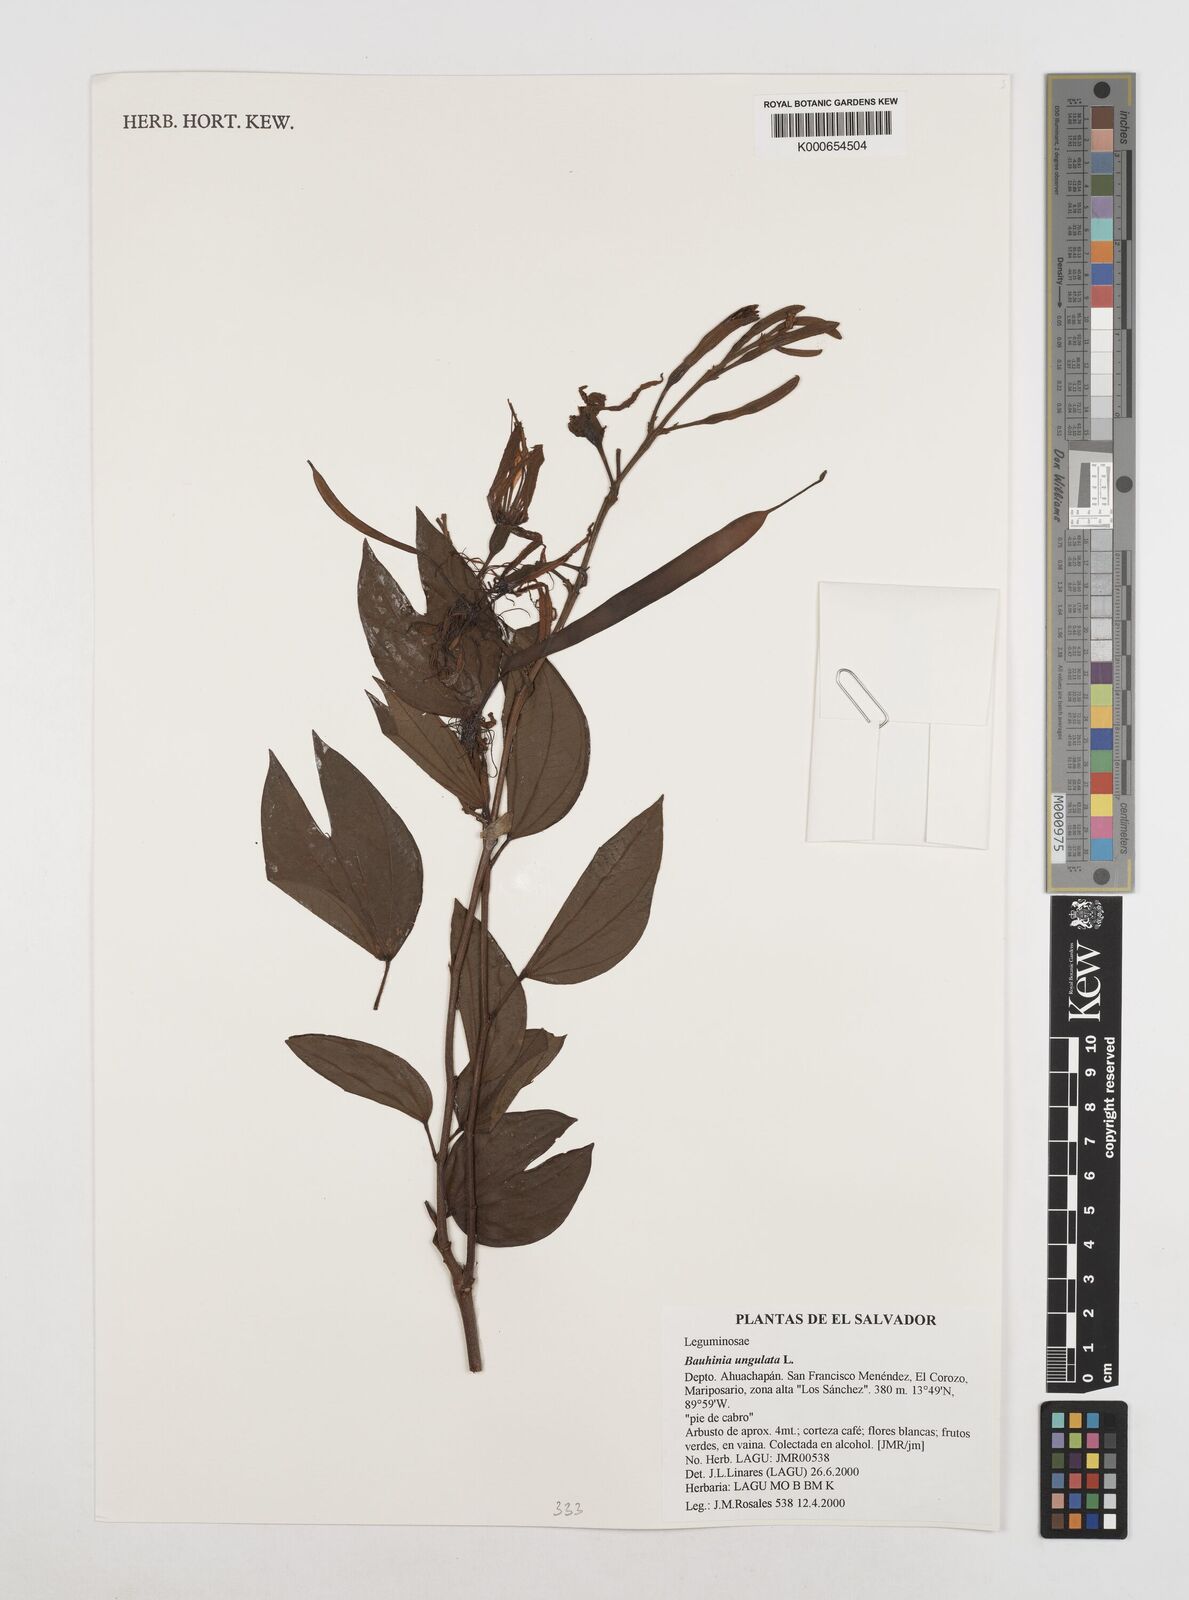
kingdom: Plantae
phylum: Tracheophyta
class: Magnoliopsida
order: Fabales
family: Fabaceae
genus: Bauhinia
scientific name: Bauhinia ungulata
